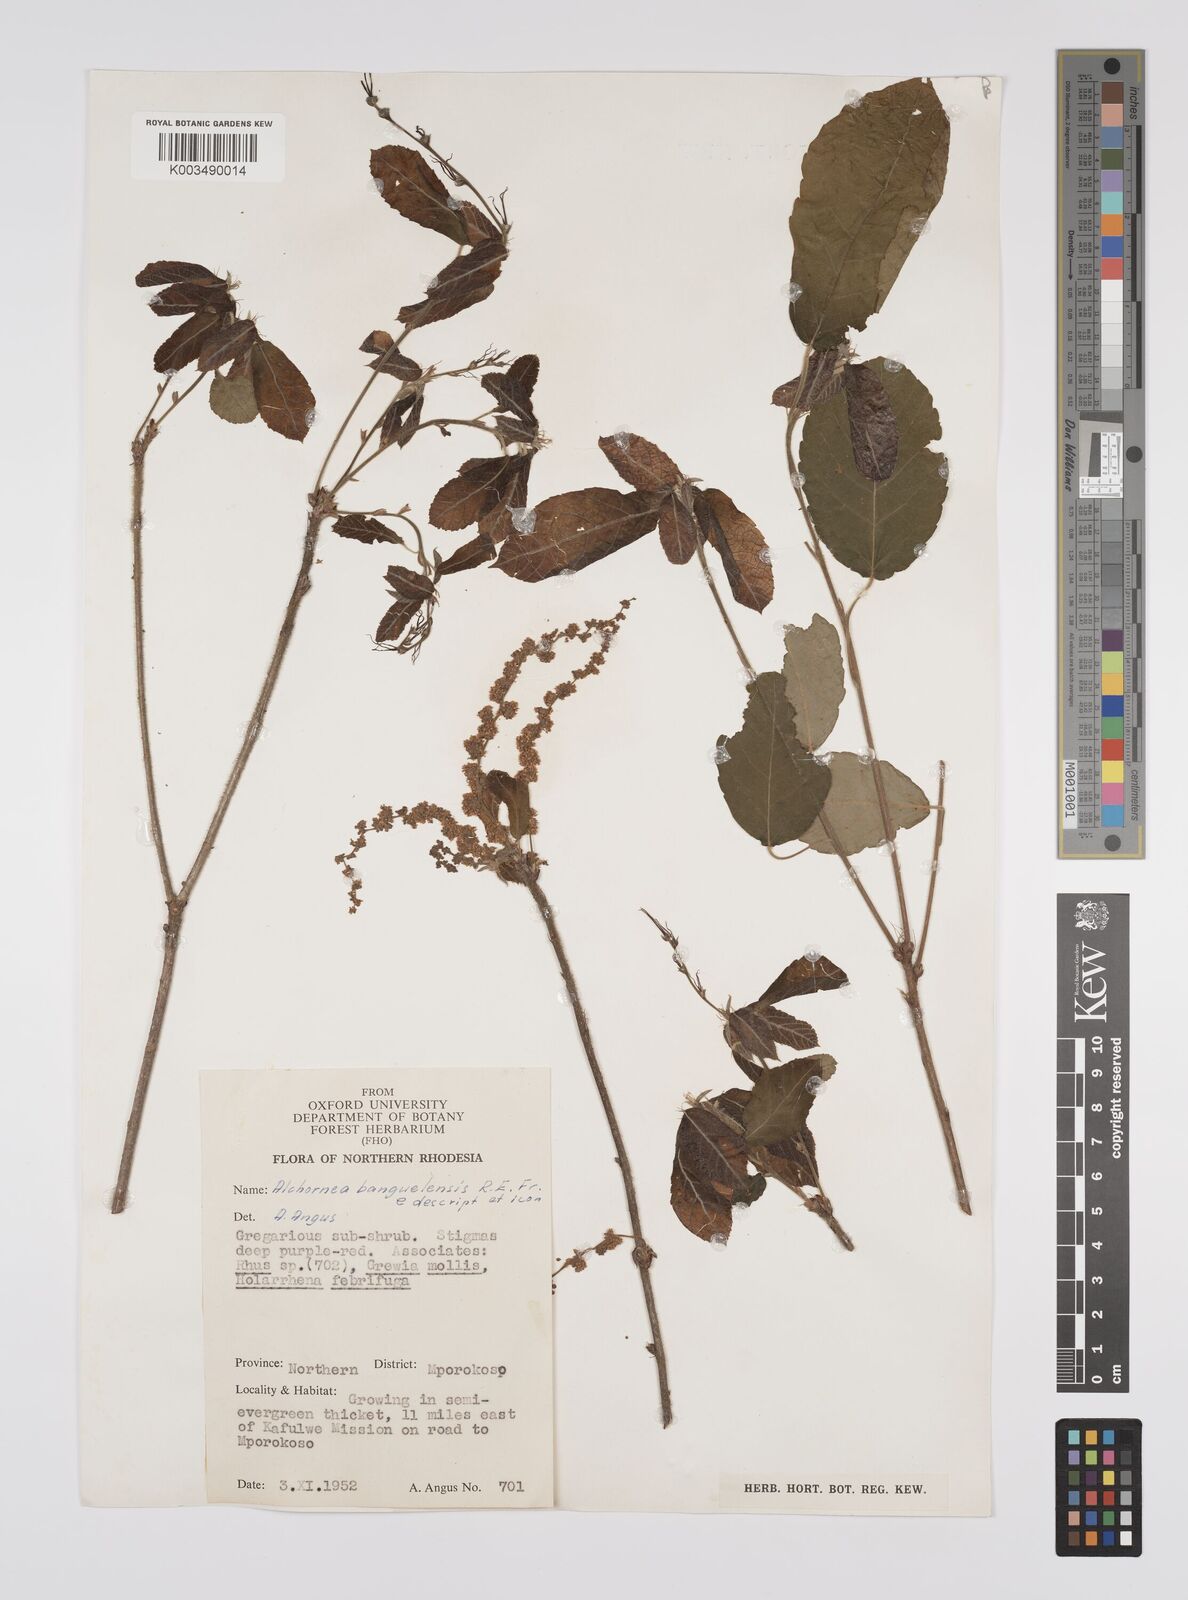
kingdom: Plantae
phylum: Tracheophyta
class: Magnoliopsida
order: Malpighiales
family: Euphorbiaceae
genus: Alchornea
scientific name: Alchornea yambuyaensis
